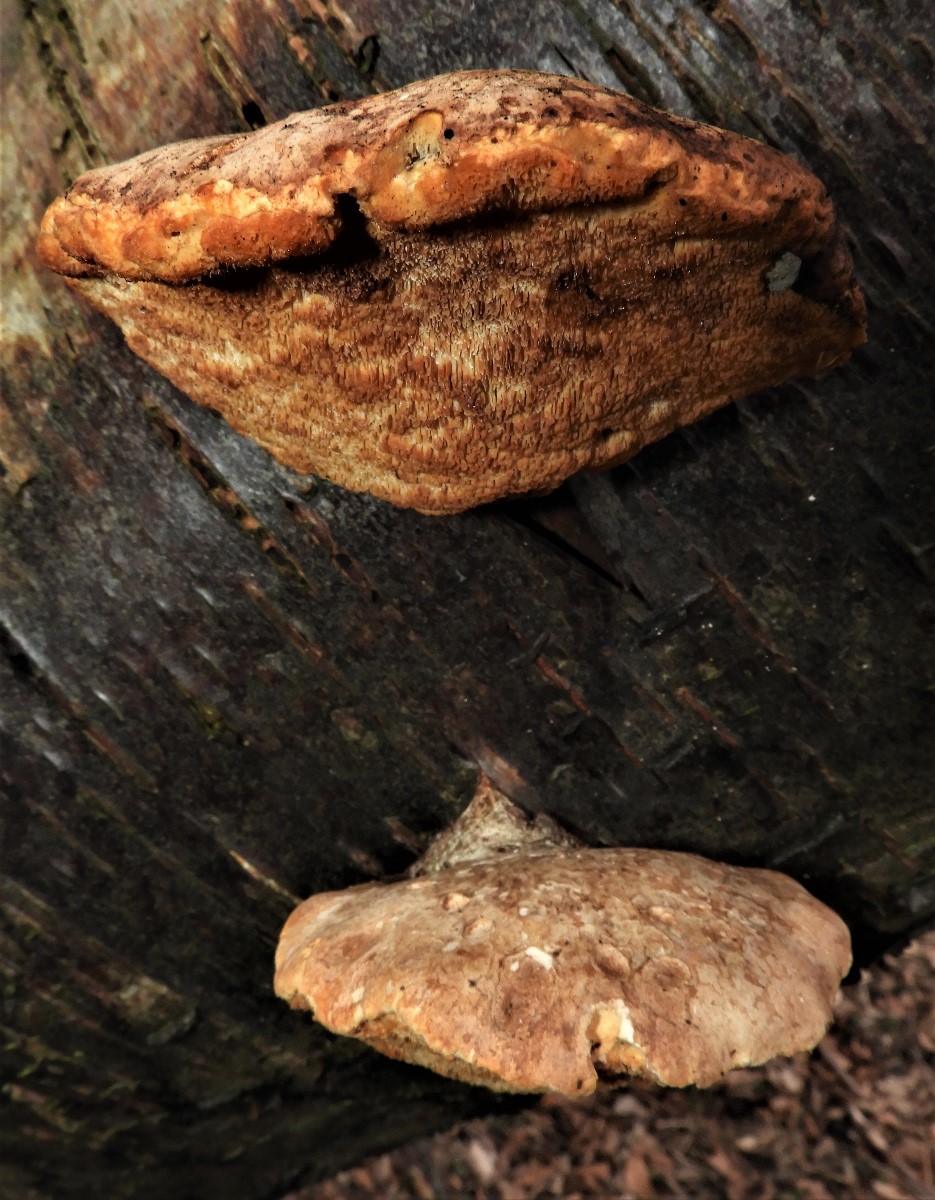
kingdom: Fungi
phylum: Basidiomycota
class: Agaricomycetes
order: Polyporales
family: Fomitopsidaceae
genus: Fomitopsis
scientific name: Fomitopsis betulina
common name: birkeporesvamp
